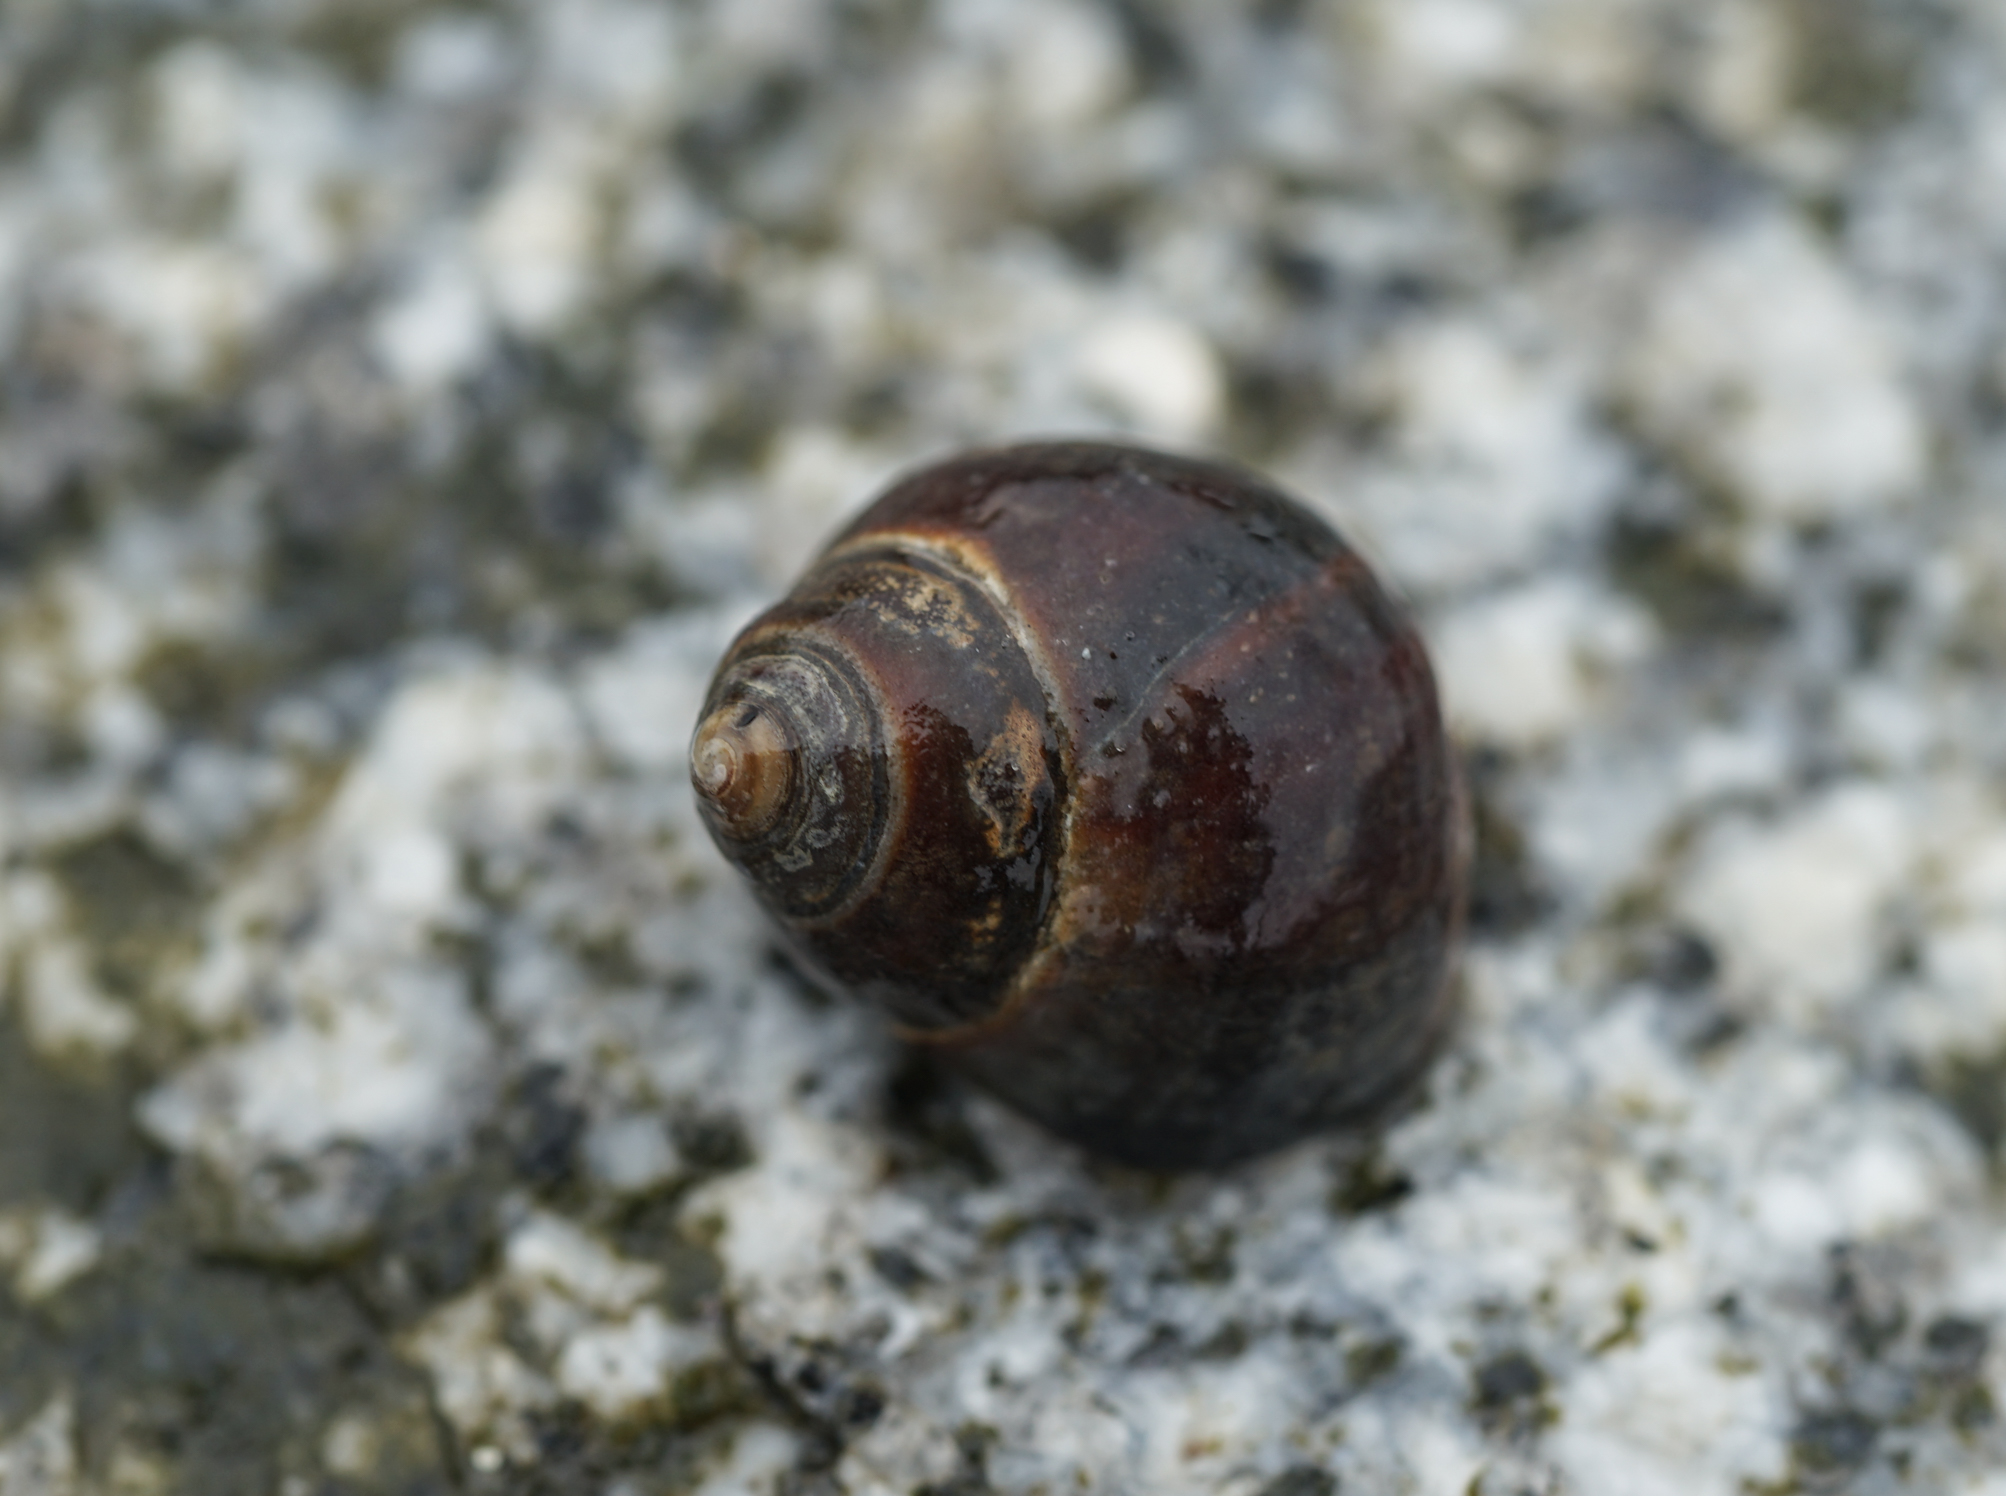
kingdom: Animalia
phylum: Mollusca
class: Gastropoda
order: Littorinimorpha
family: Littorinidae
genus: Littorina
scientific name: Littorina littorea
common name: Common periwinkle
